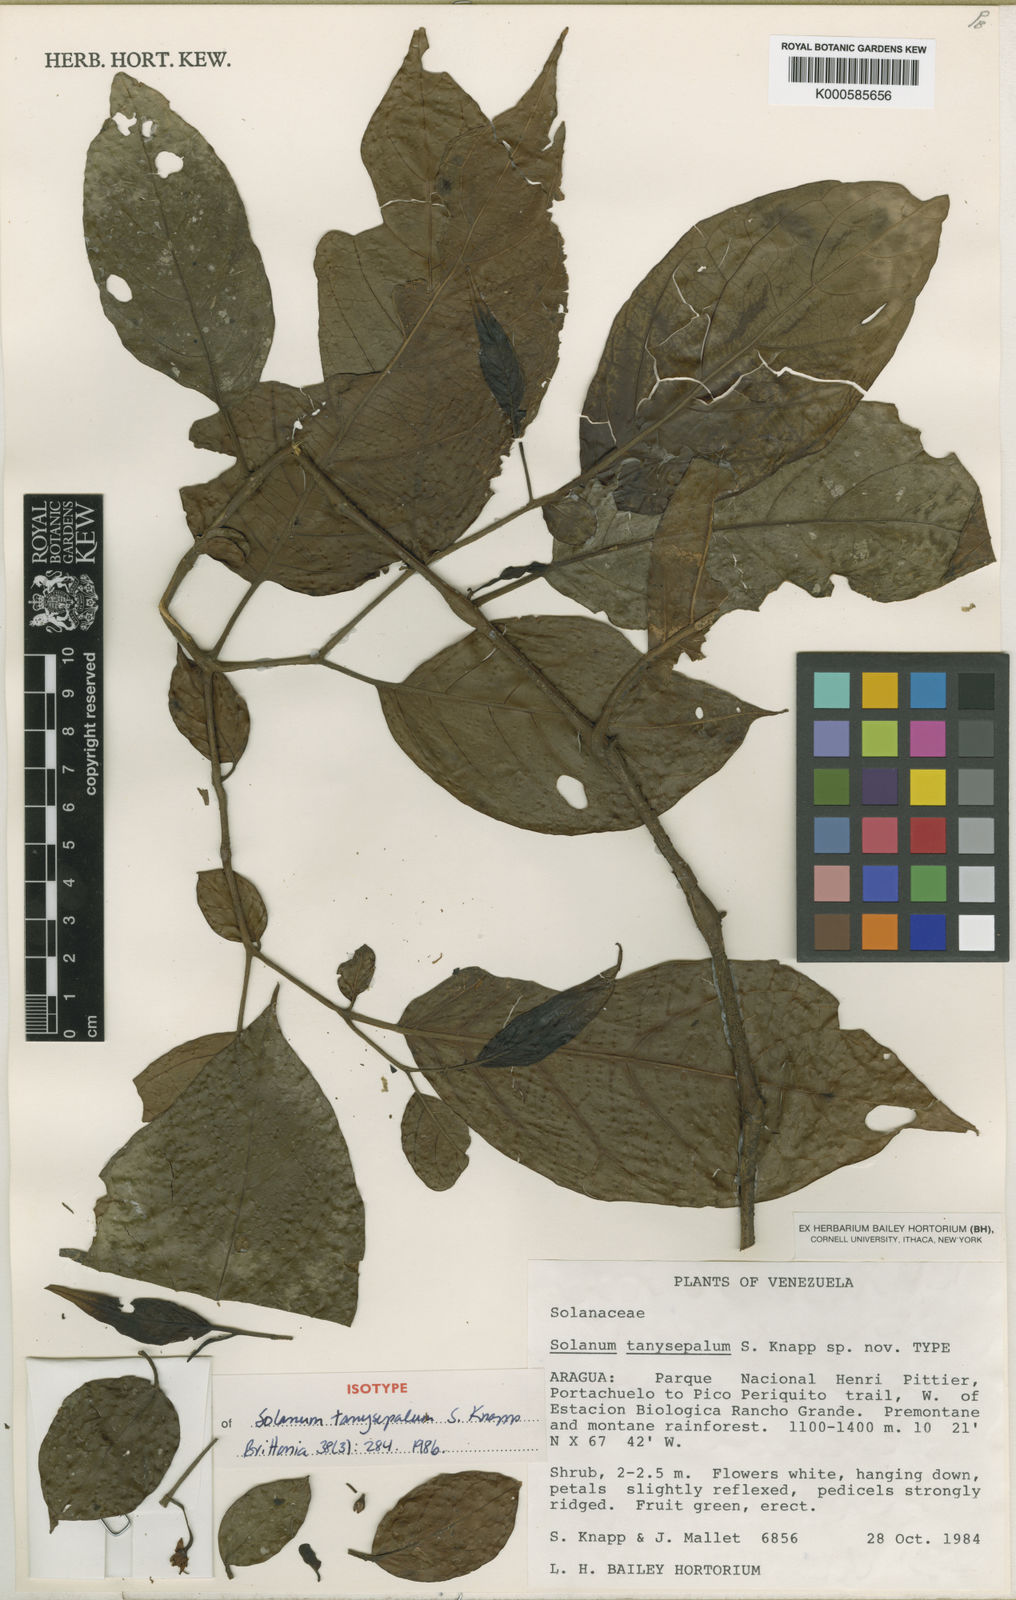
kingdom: Plantae
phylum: Tracheophyta
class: Magnoliopsida
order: Solanales
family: Solanaceae
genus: Solanum
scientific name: Solanum tanysepalum
